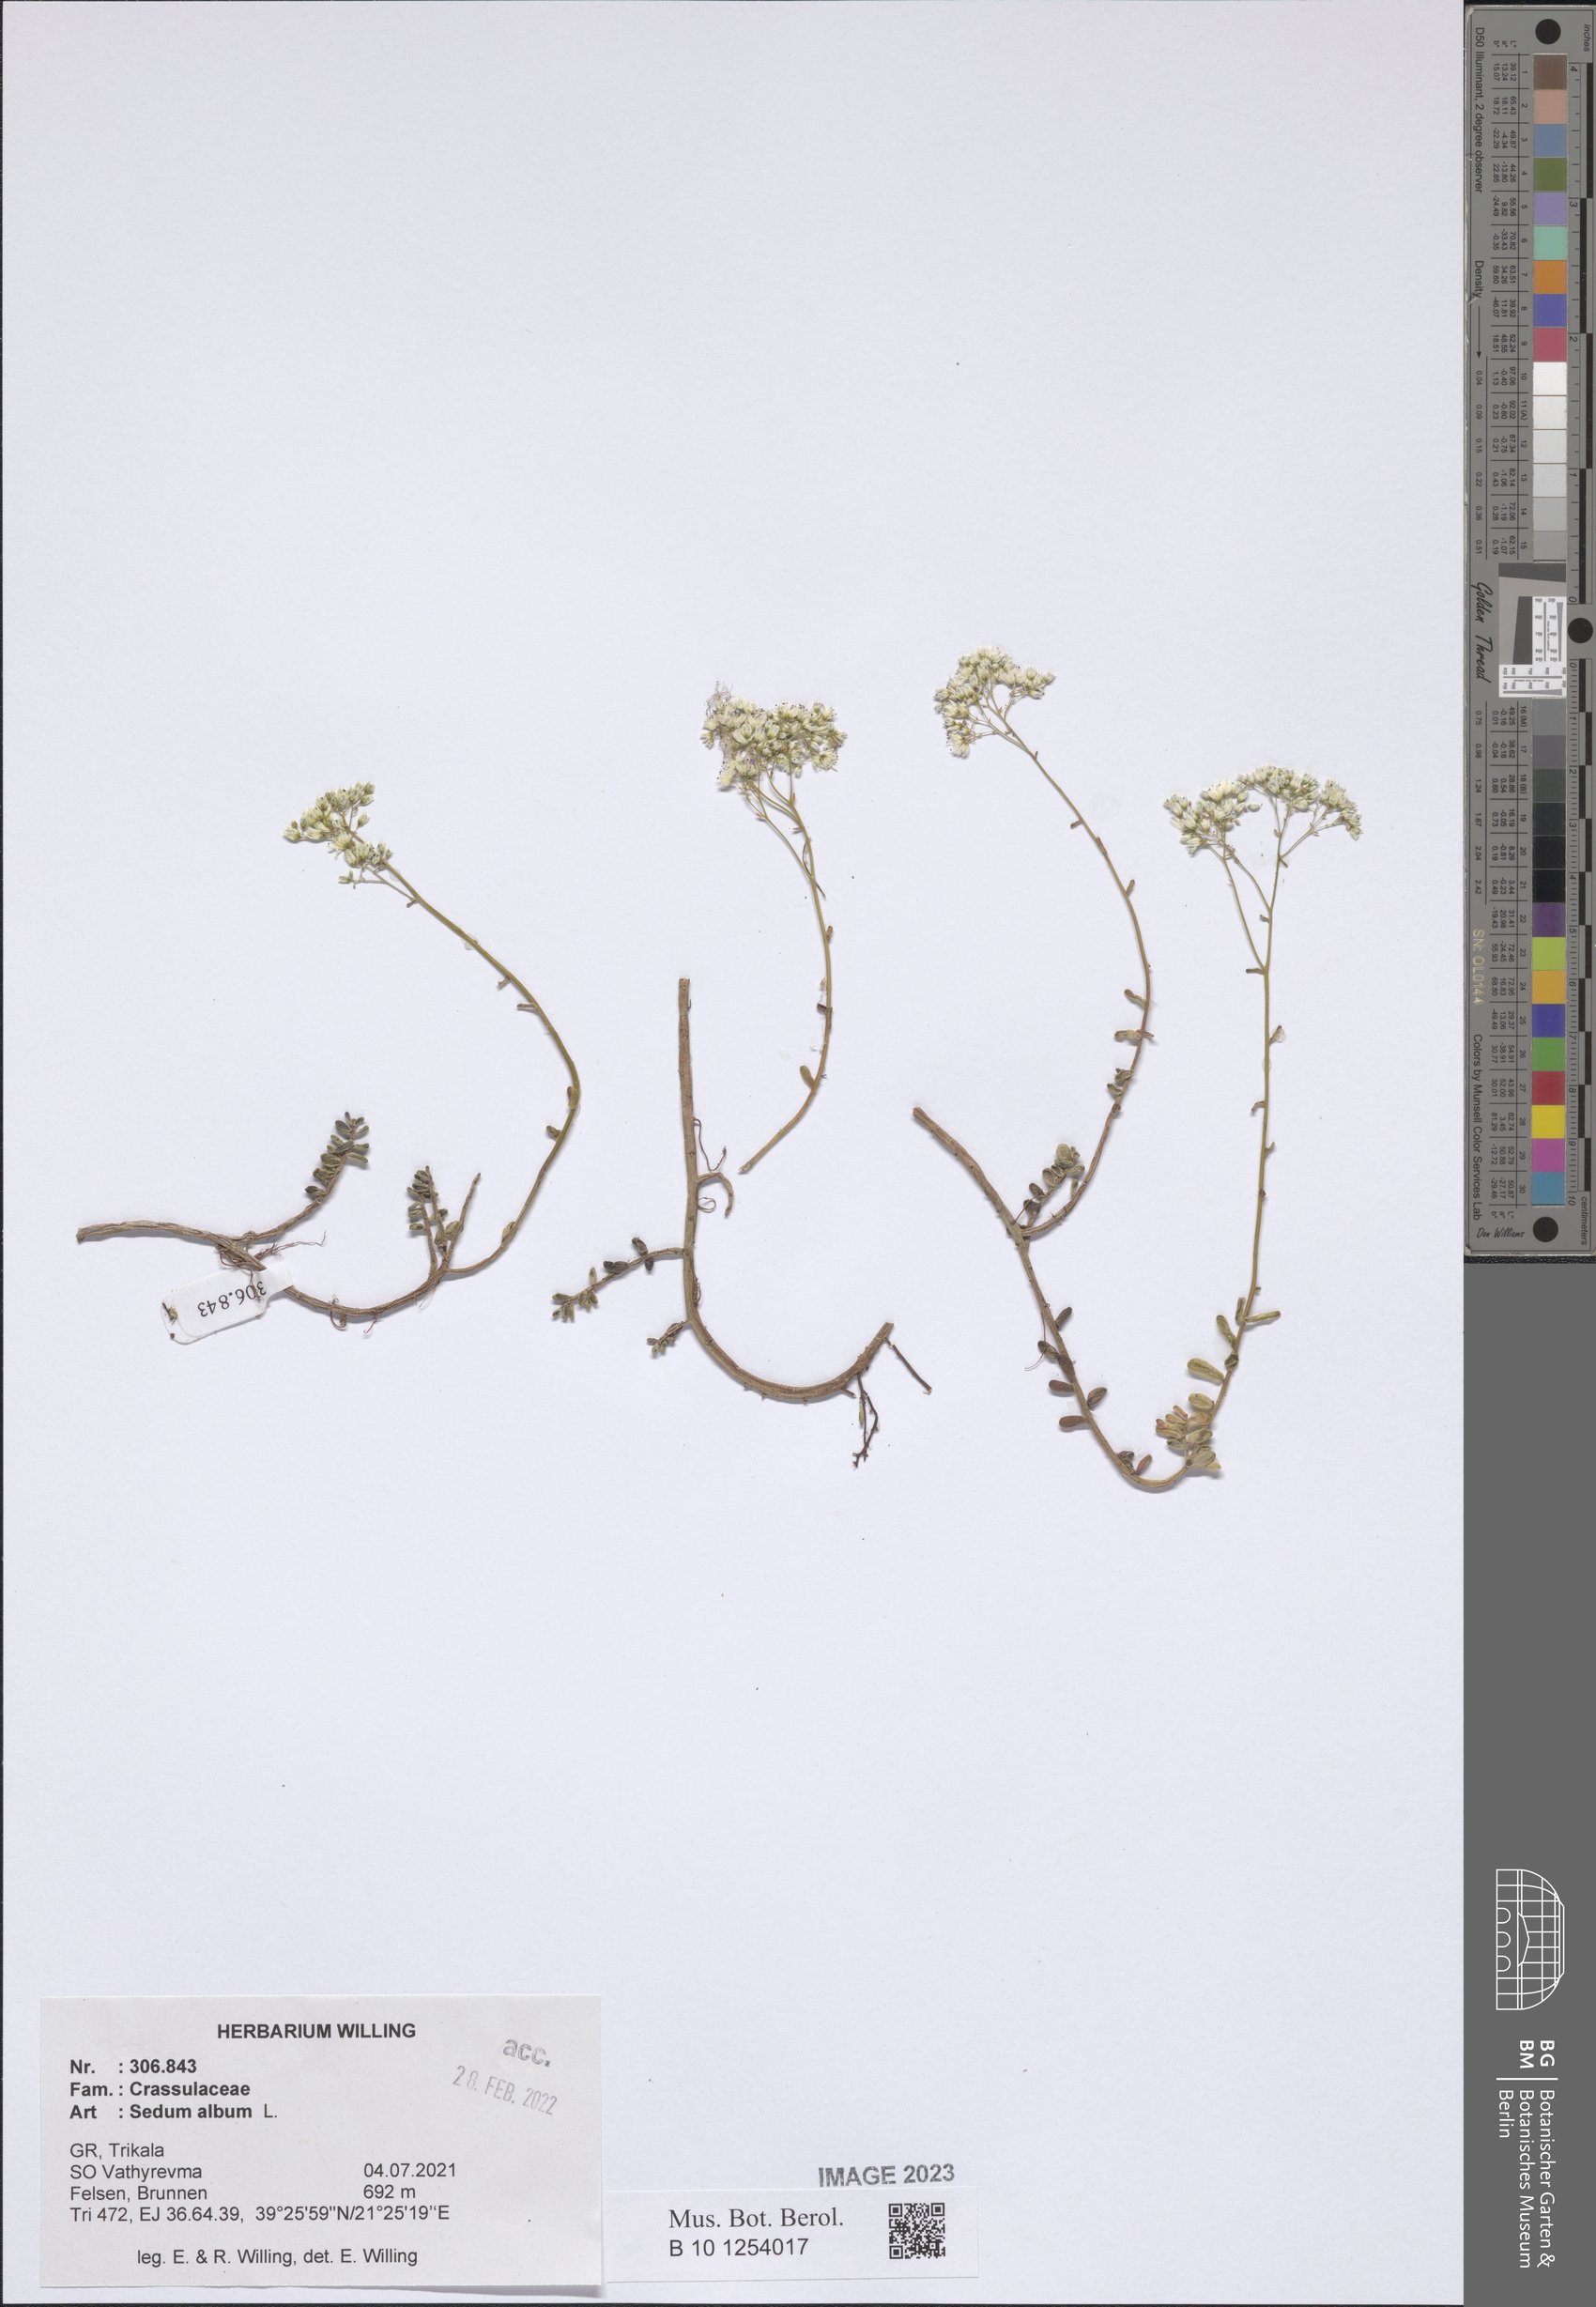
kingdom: Plantae
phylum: Tracheophyta
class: Magnoliopsida
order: Saxifragales
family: Crassulaceae
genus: Sedum
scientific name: Sedum album
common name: White stonecrop
